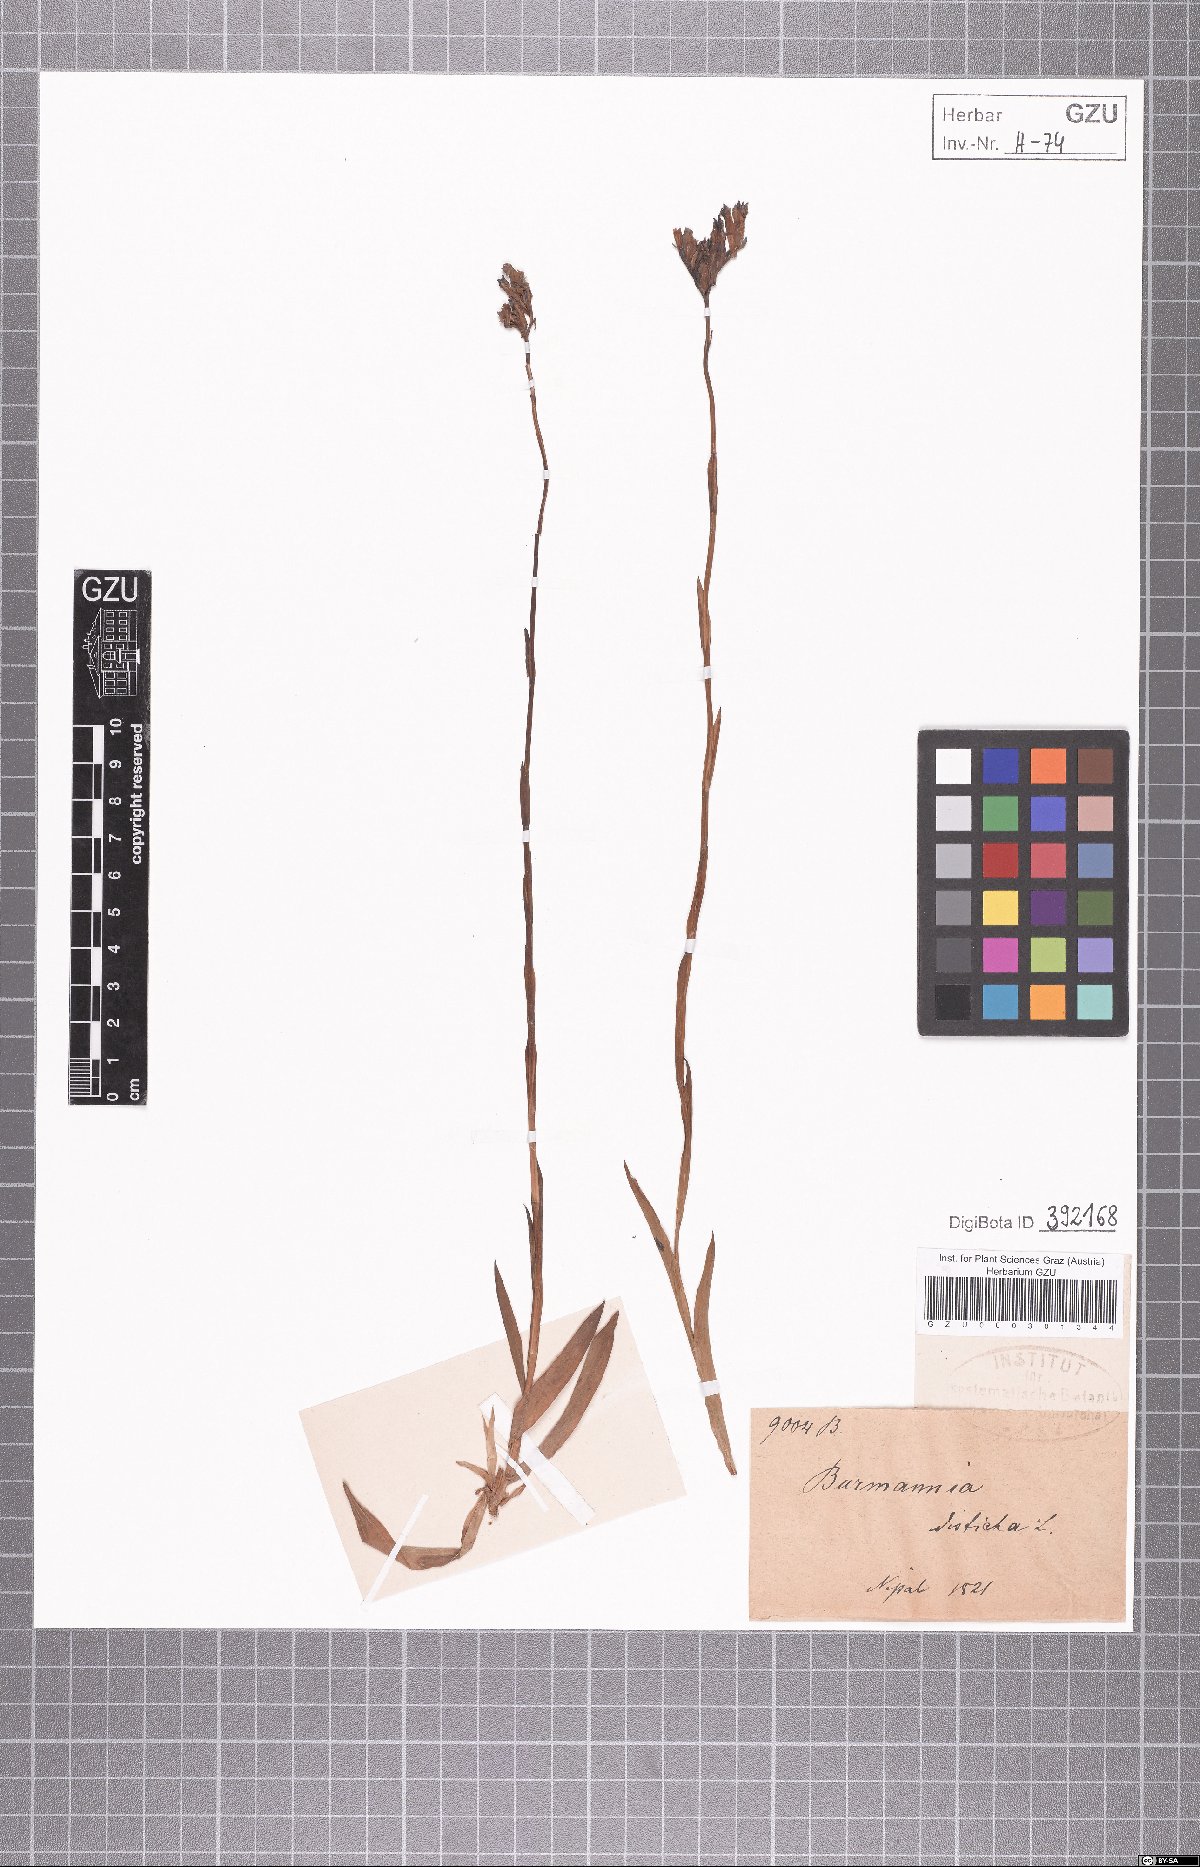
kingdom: Plantae
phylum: Tracheophyta
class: Liliopsida
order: Dioscoreales
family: Burmanniaceae
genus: Burmannia
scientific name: Burmannia disticha
